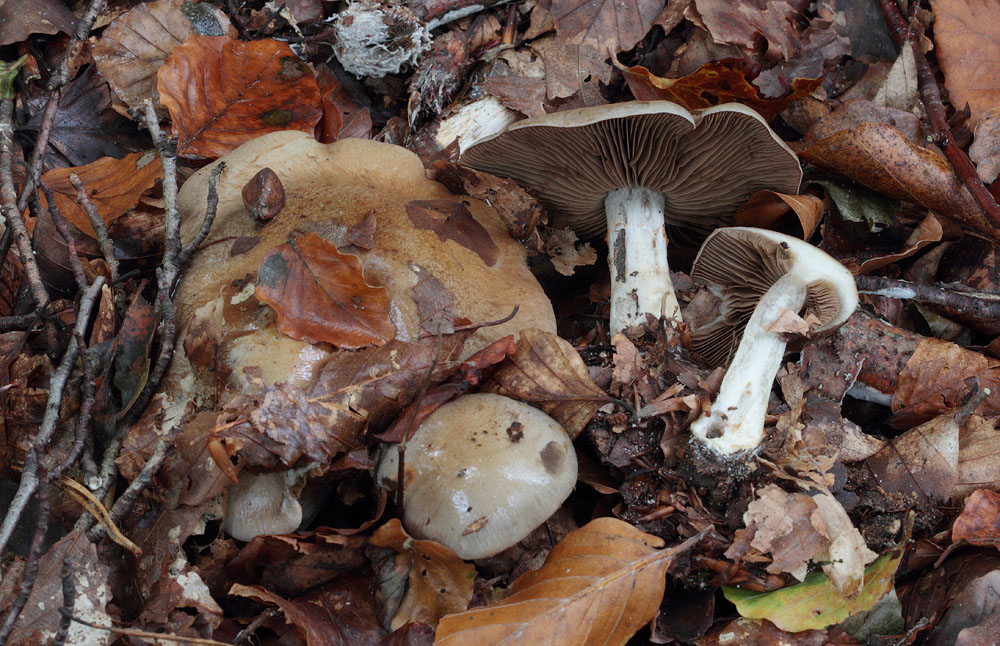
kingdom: Fungi
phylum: Basidiomycota
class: Agaricomycetes
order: Agaricales
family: Cortinariaceae
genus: Cortinarius
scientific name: Cortinarius
